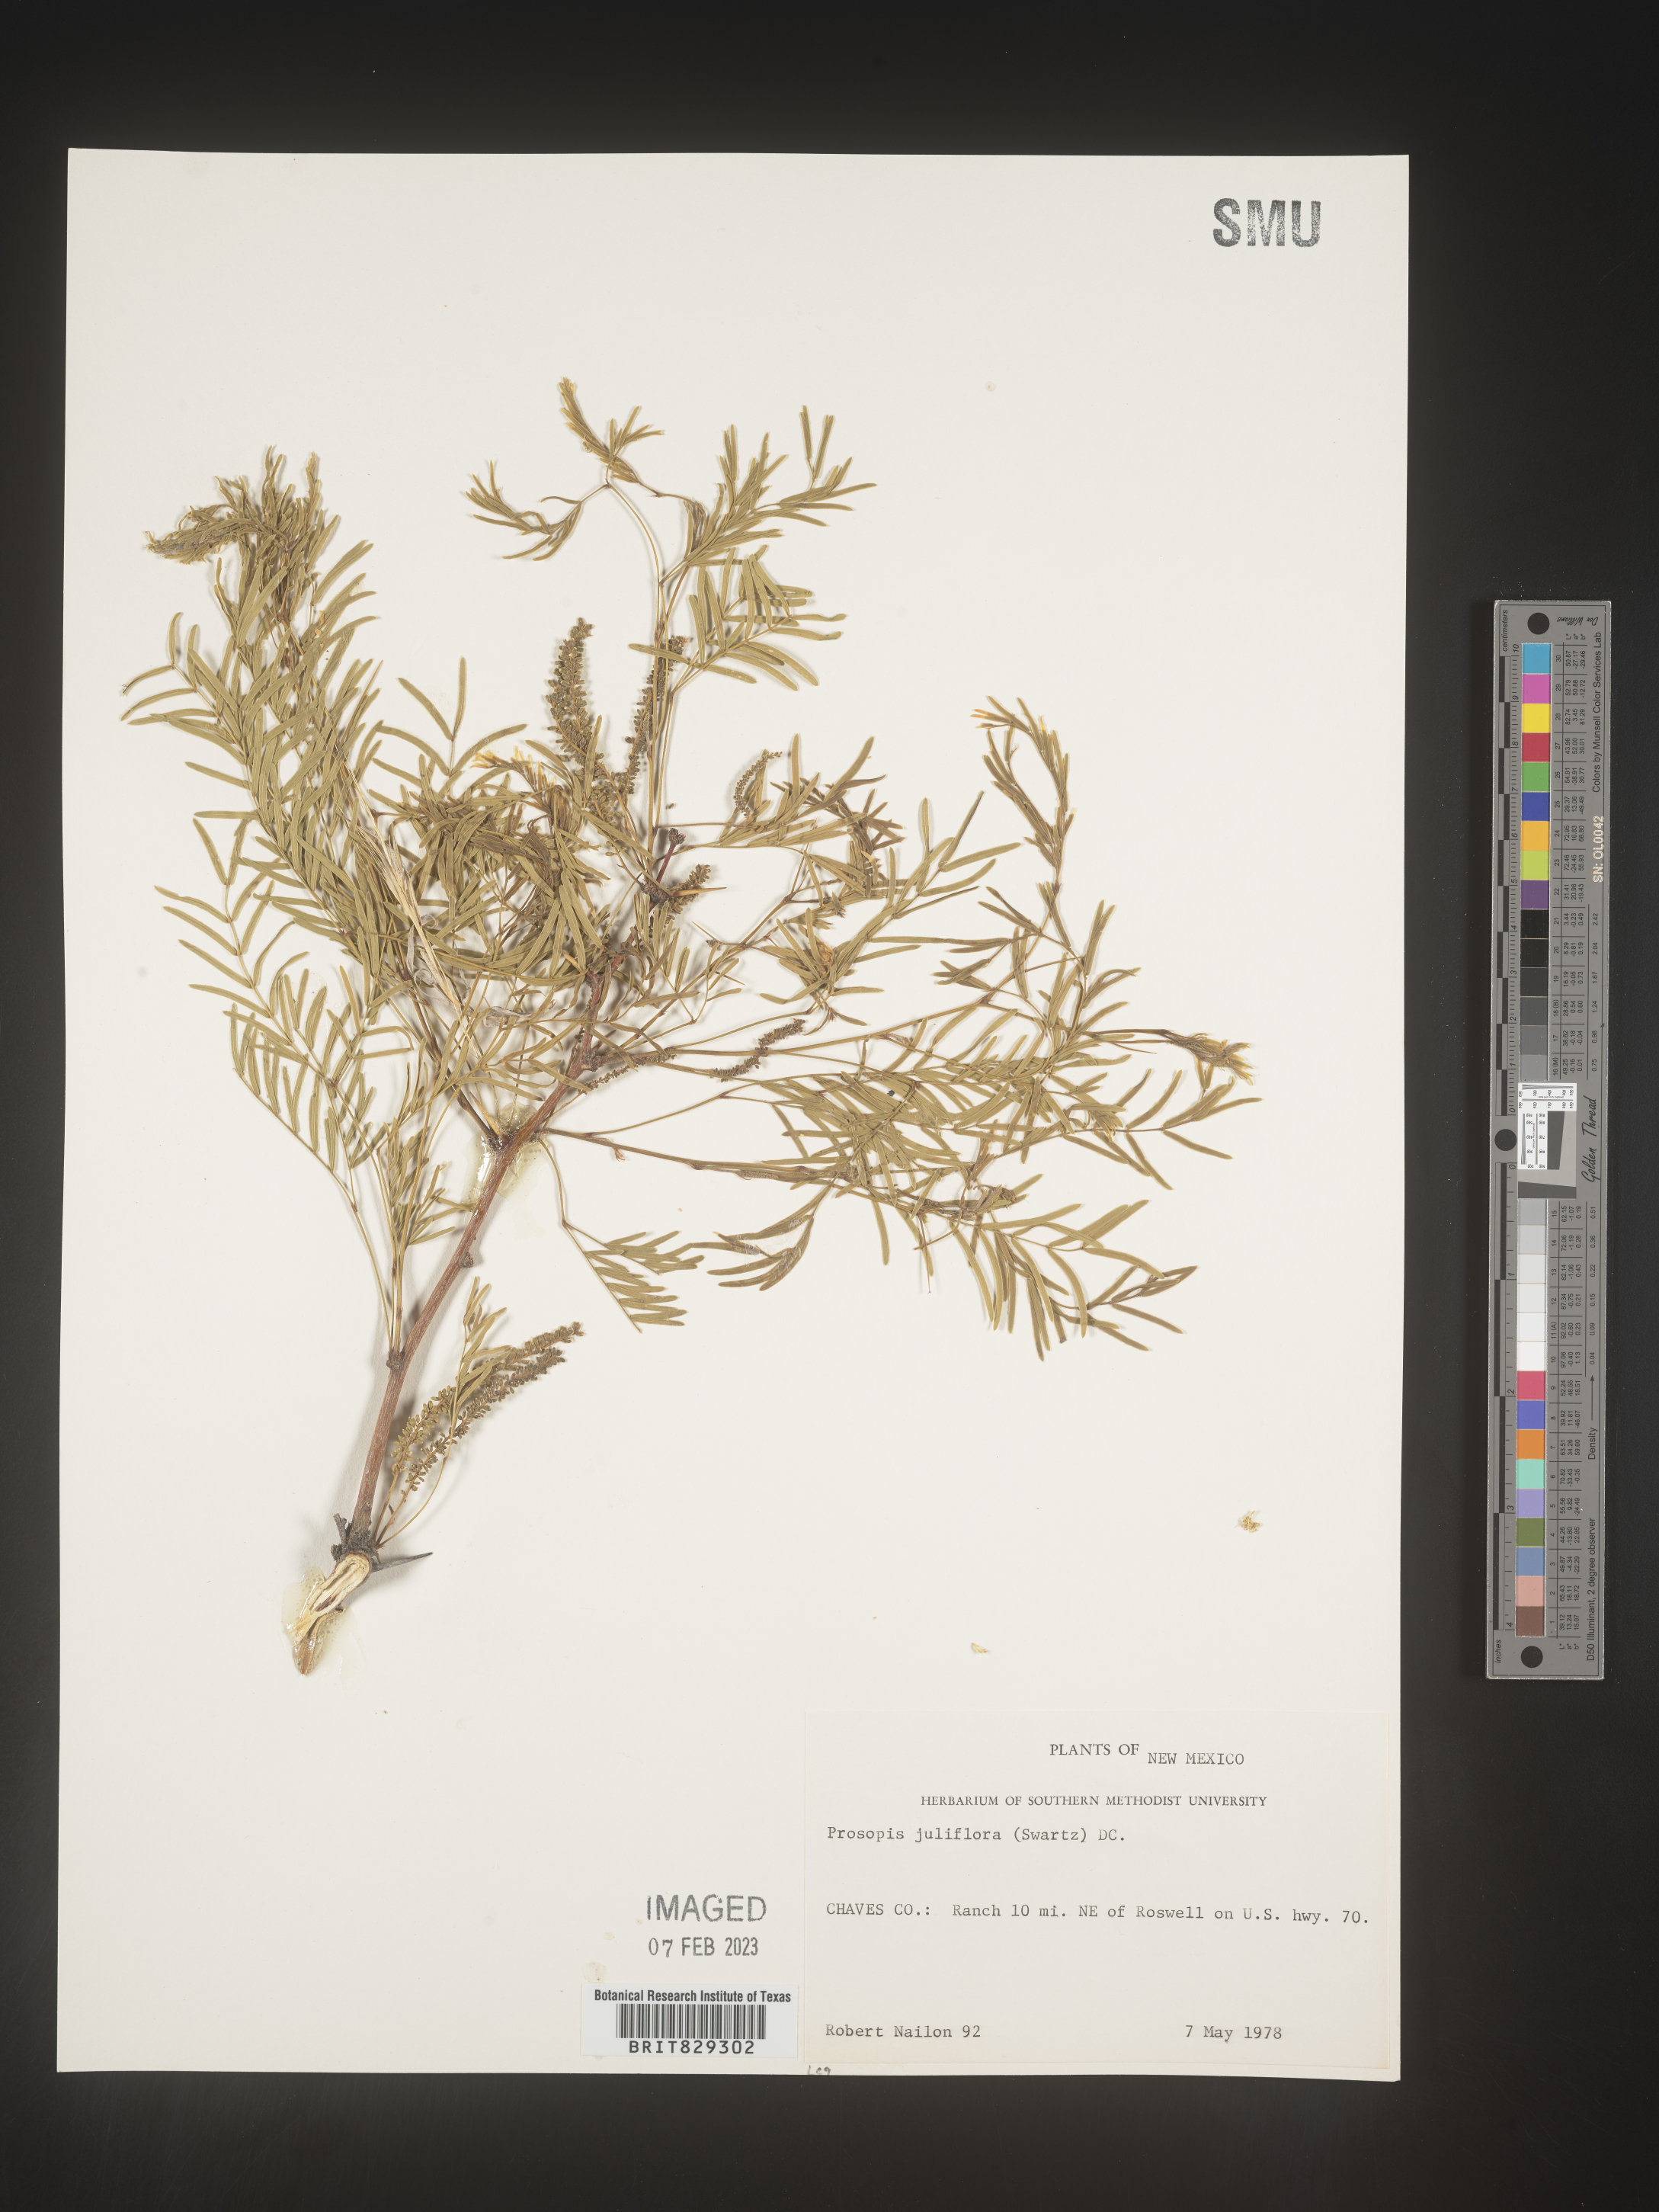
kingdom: Plantae
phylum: Tracheophyta
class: Magnoliopsida
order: Fabales
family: Fabaceae
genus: Prosopis
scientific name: Prosopis juliflora
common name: Mesquite
